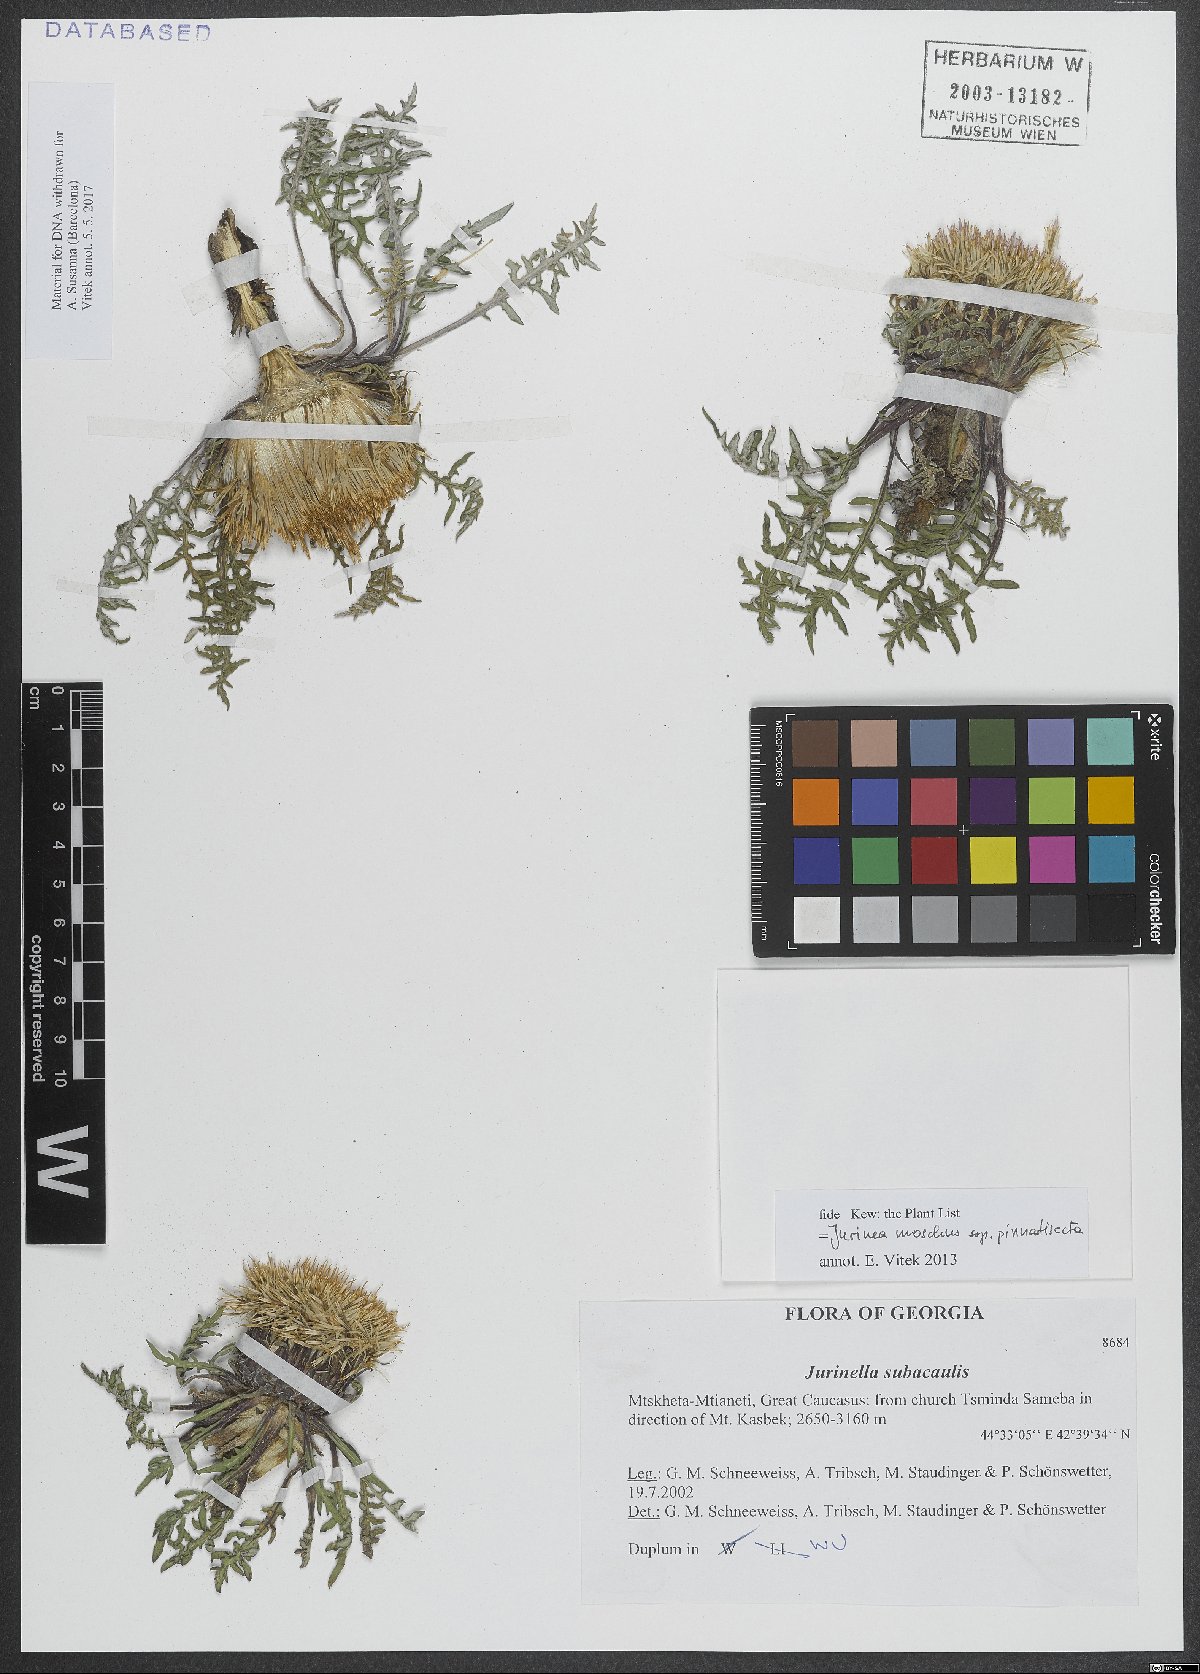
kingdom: Plantae
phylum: Tracheophyta
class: Magnoliopsida
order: Asterales
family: Asteraceae
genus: Jurinea
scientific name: Jurinea moschus
